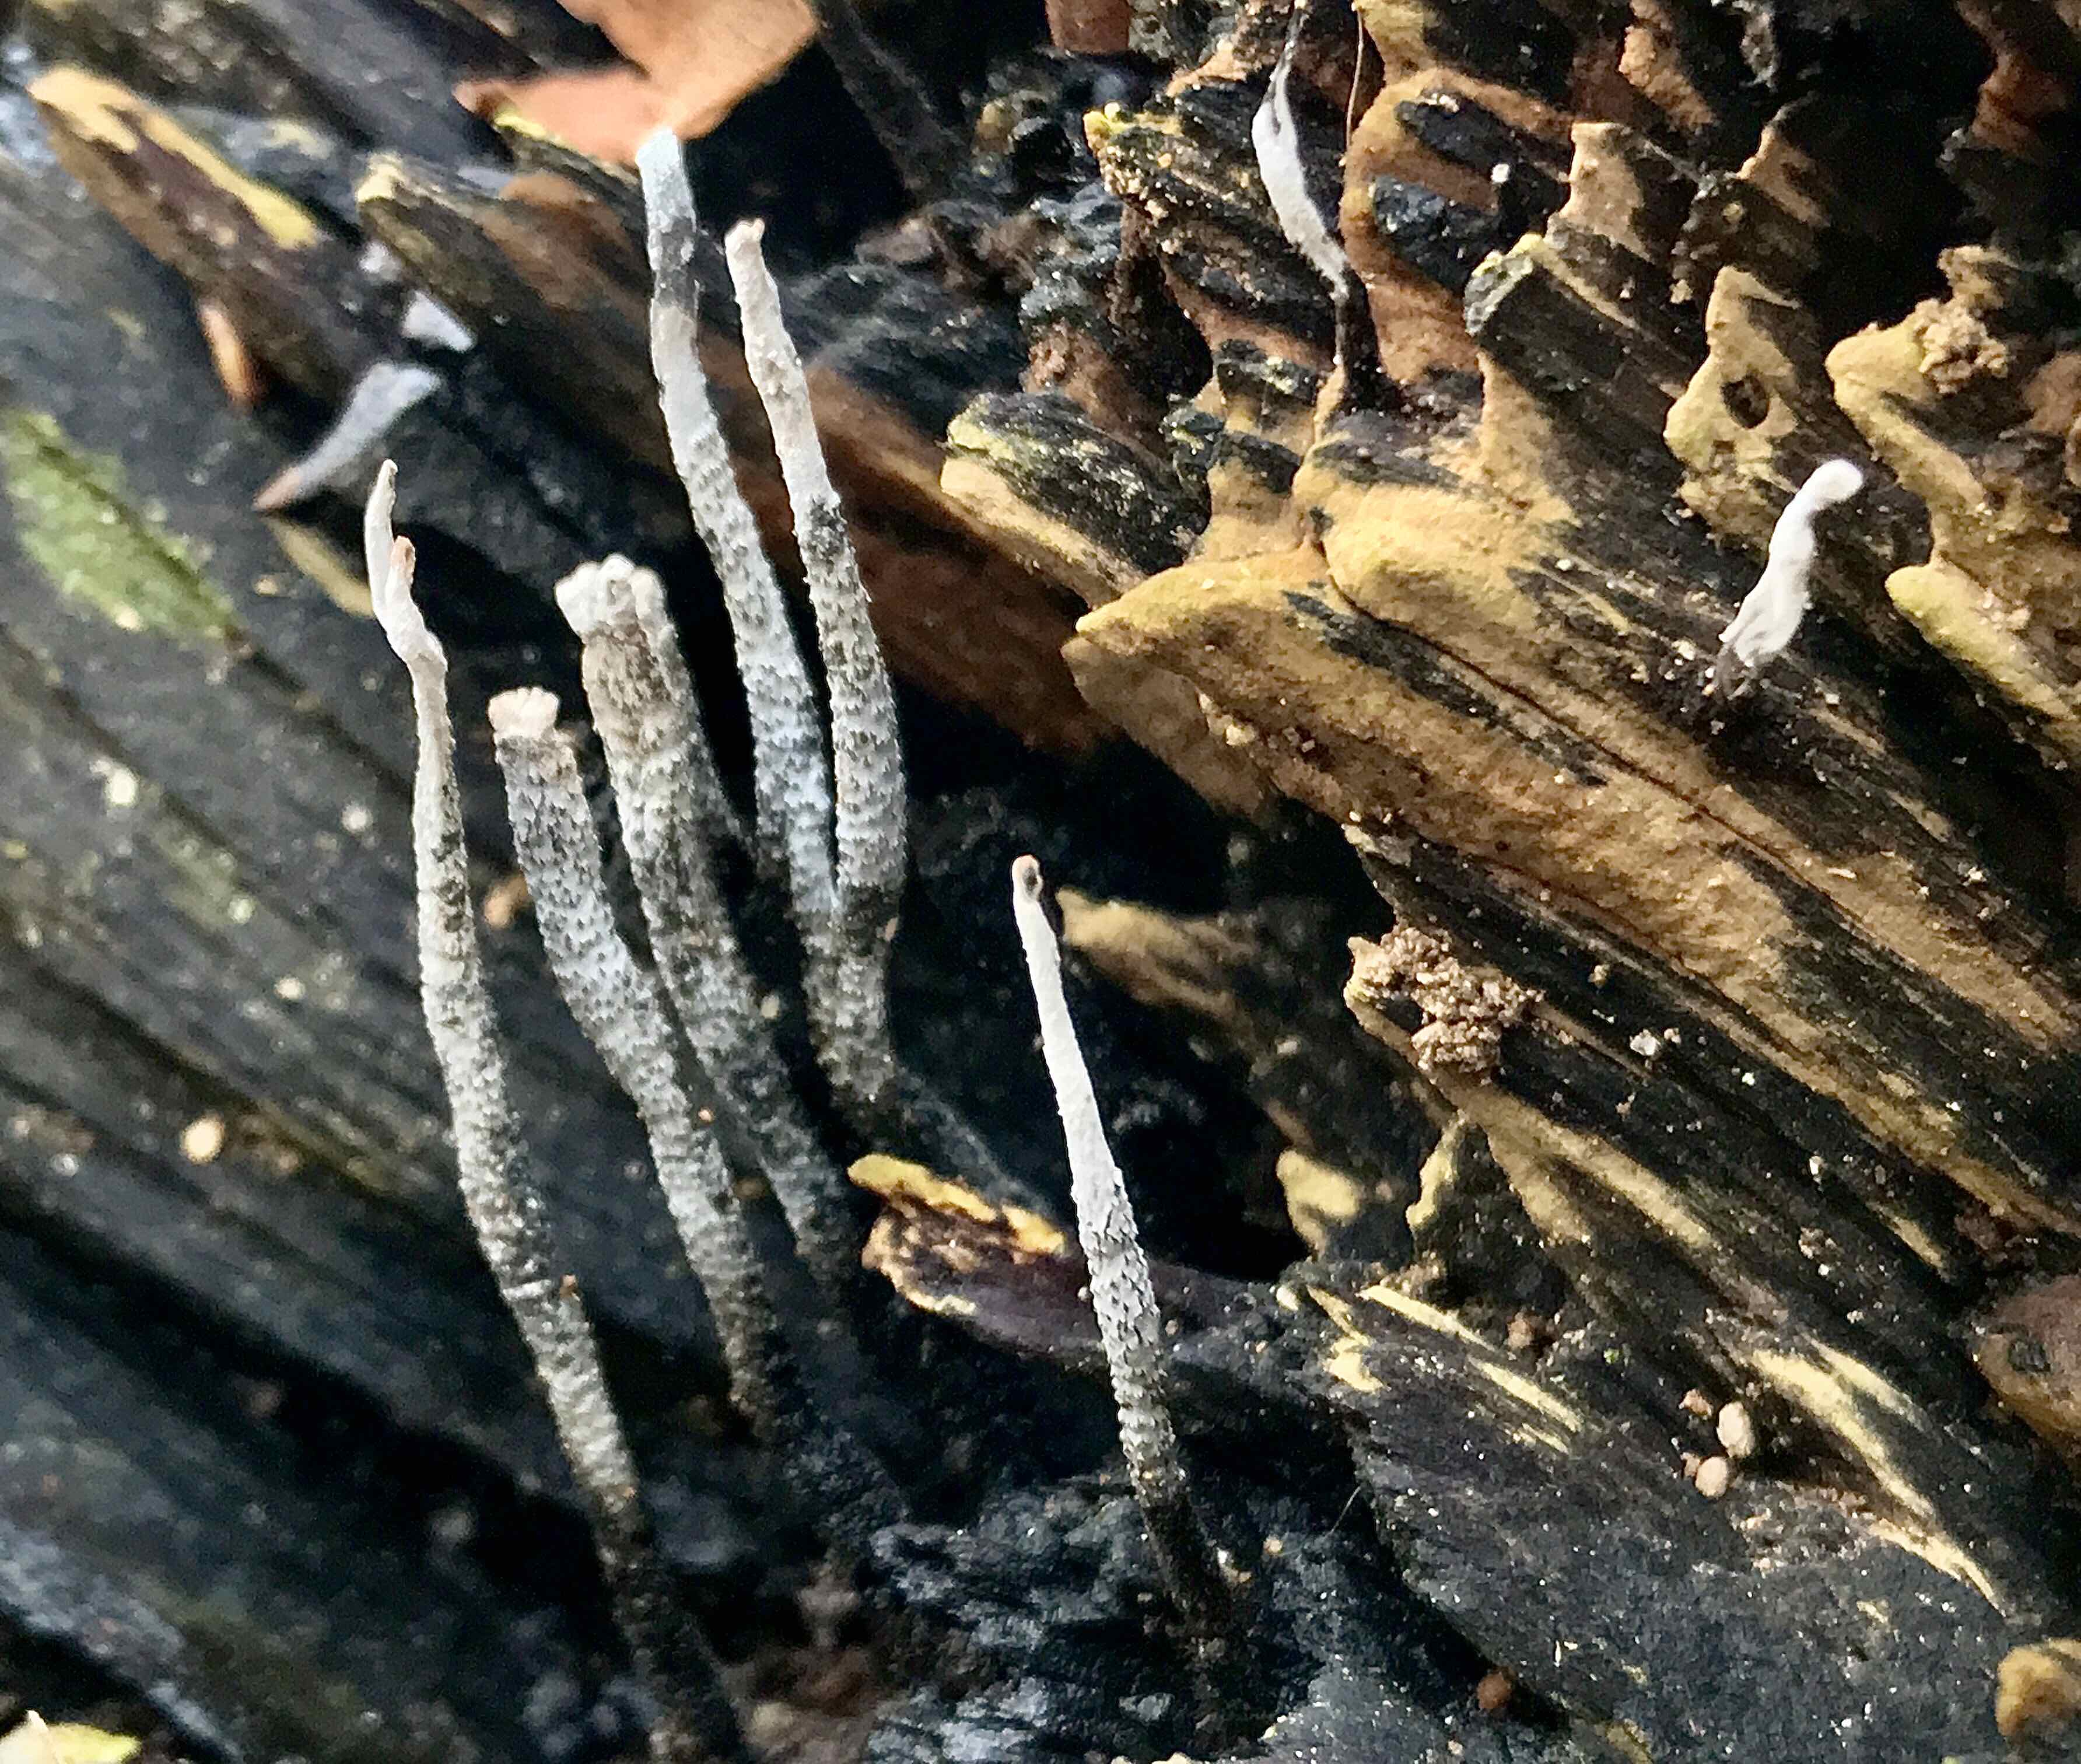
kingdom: Fungi
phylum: Ascomycota
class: Sordariomycetes
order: Xylariales
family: Xylariaceae
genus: Xylaria
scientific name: Xylaria hypoxylon
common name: grenet stødsvamp
